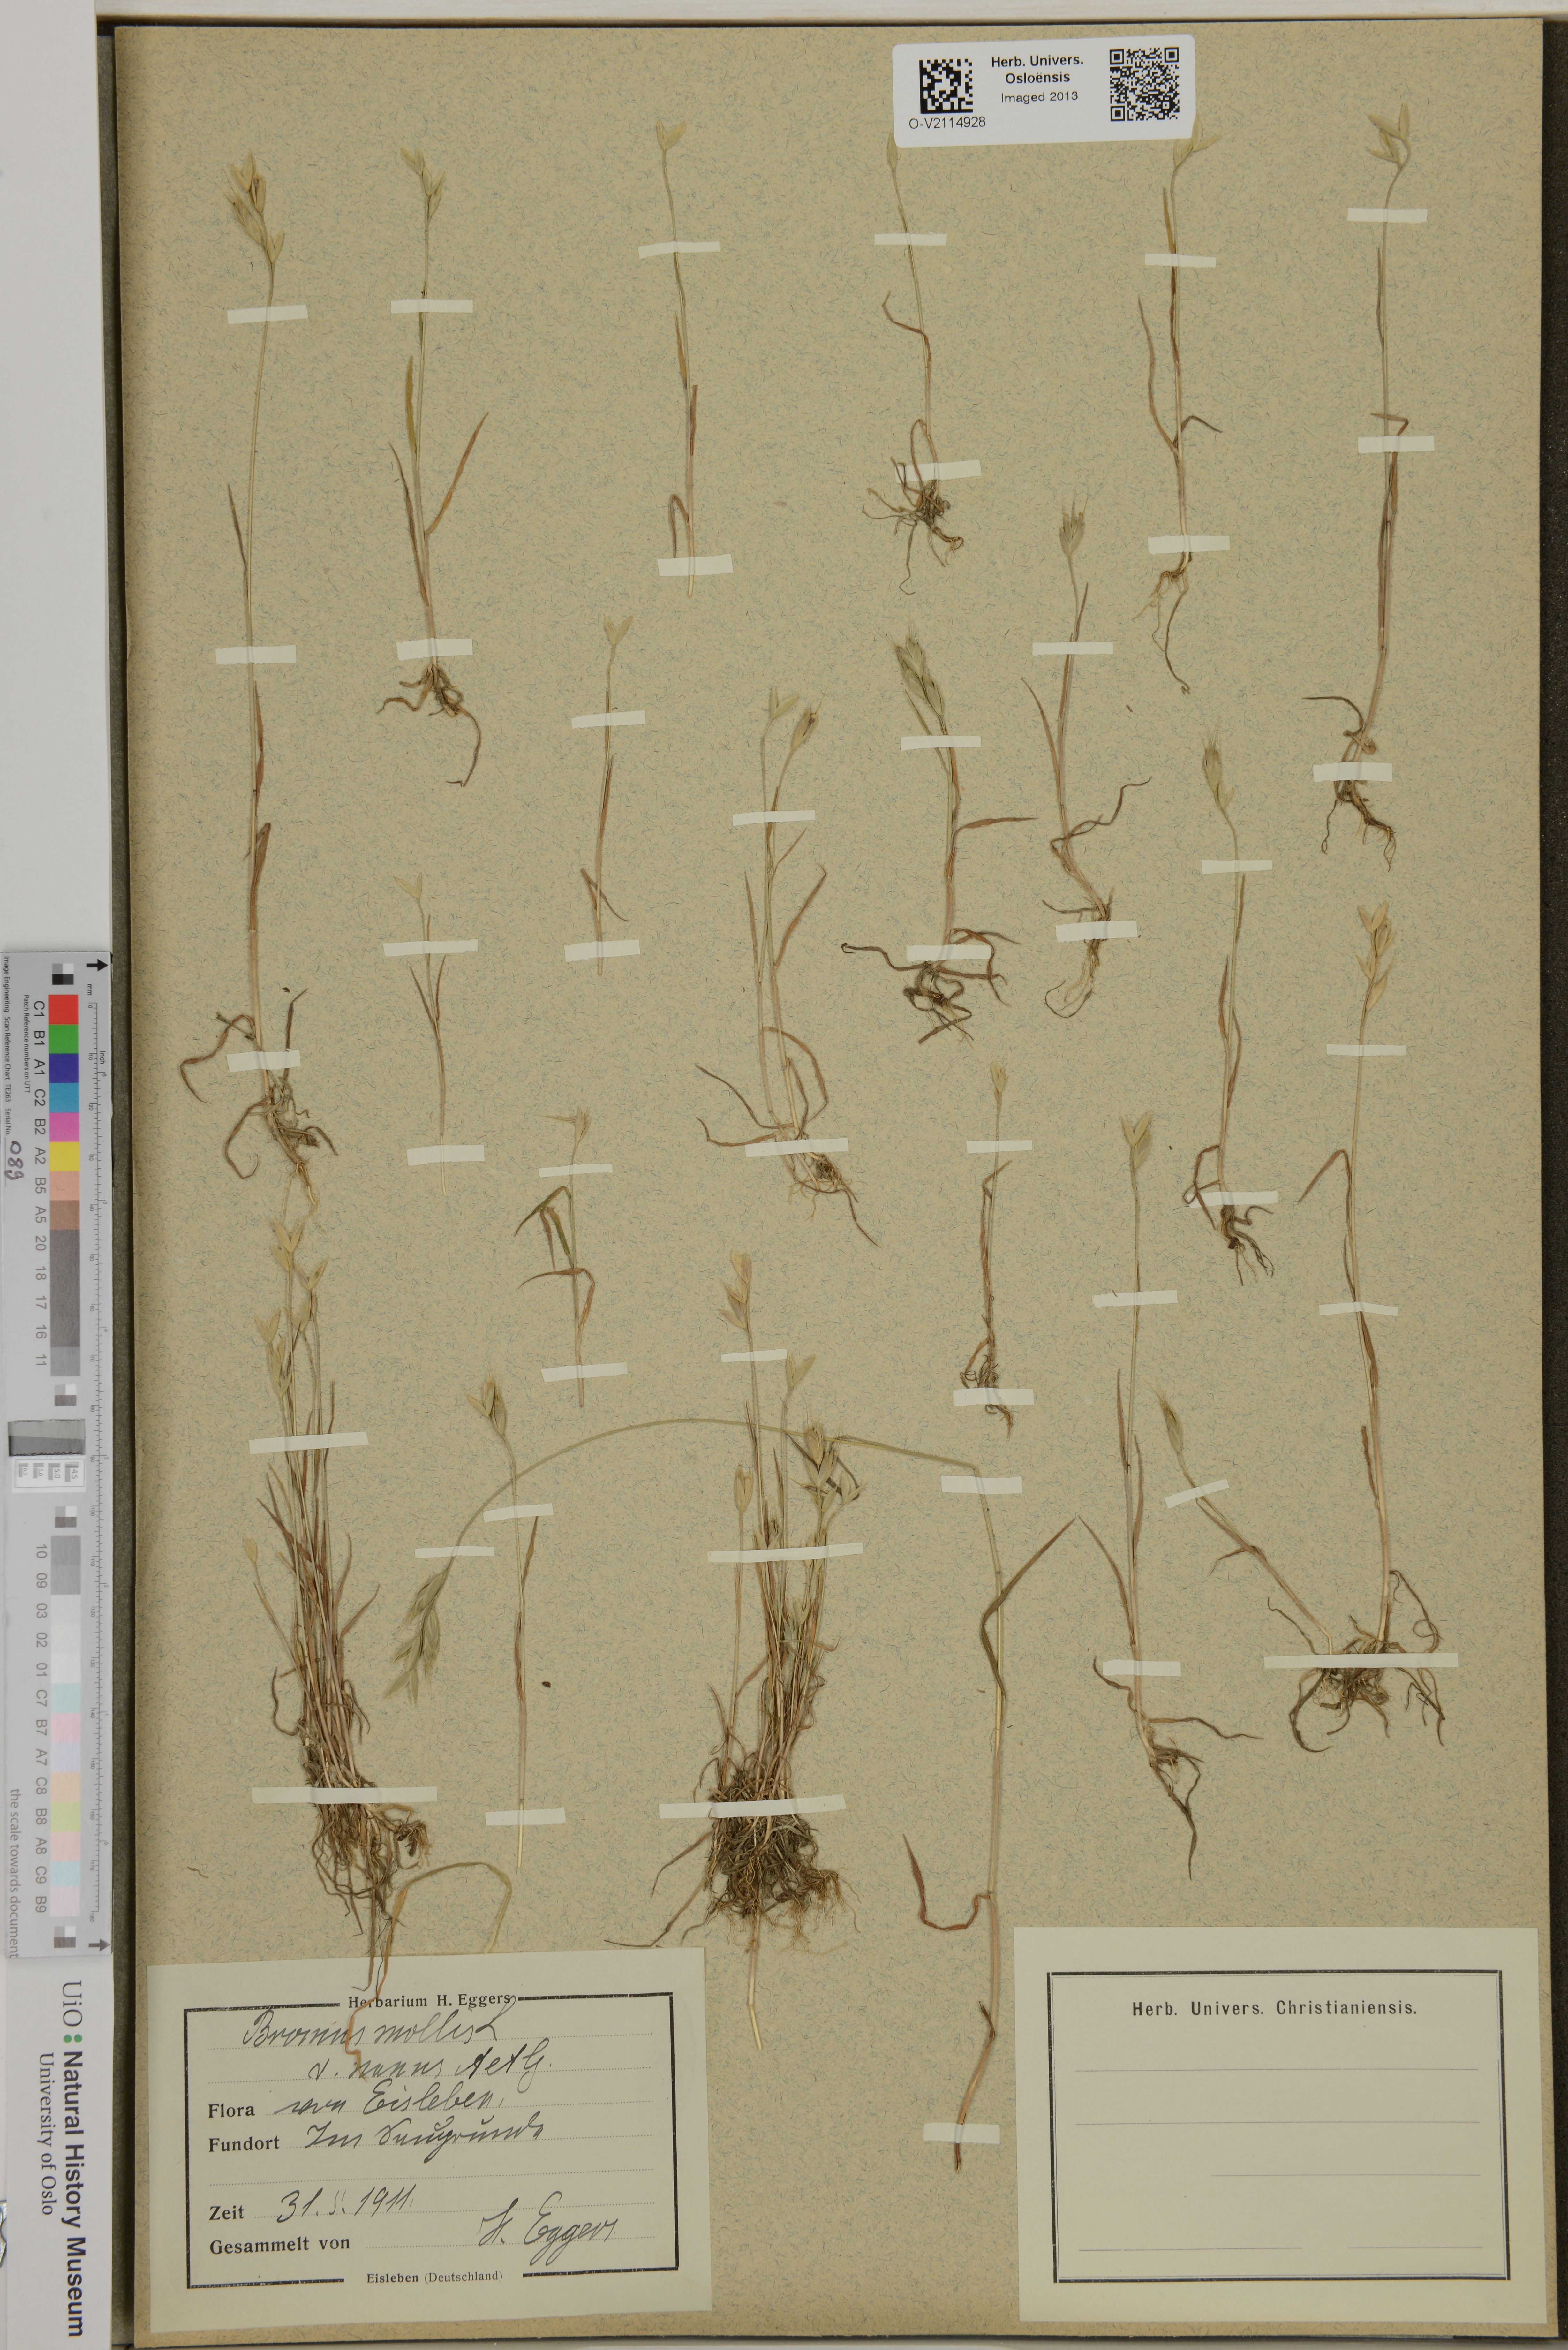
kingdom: Plantae
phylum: Tracheophyta
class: Liliopsida
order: Poales
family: Poaceae
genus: Bromus
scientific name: Bromus hordeaceus
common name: Soft brome
